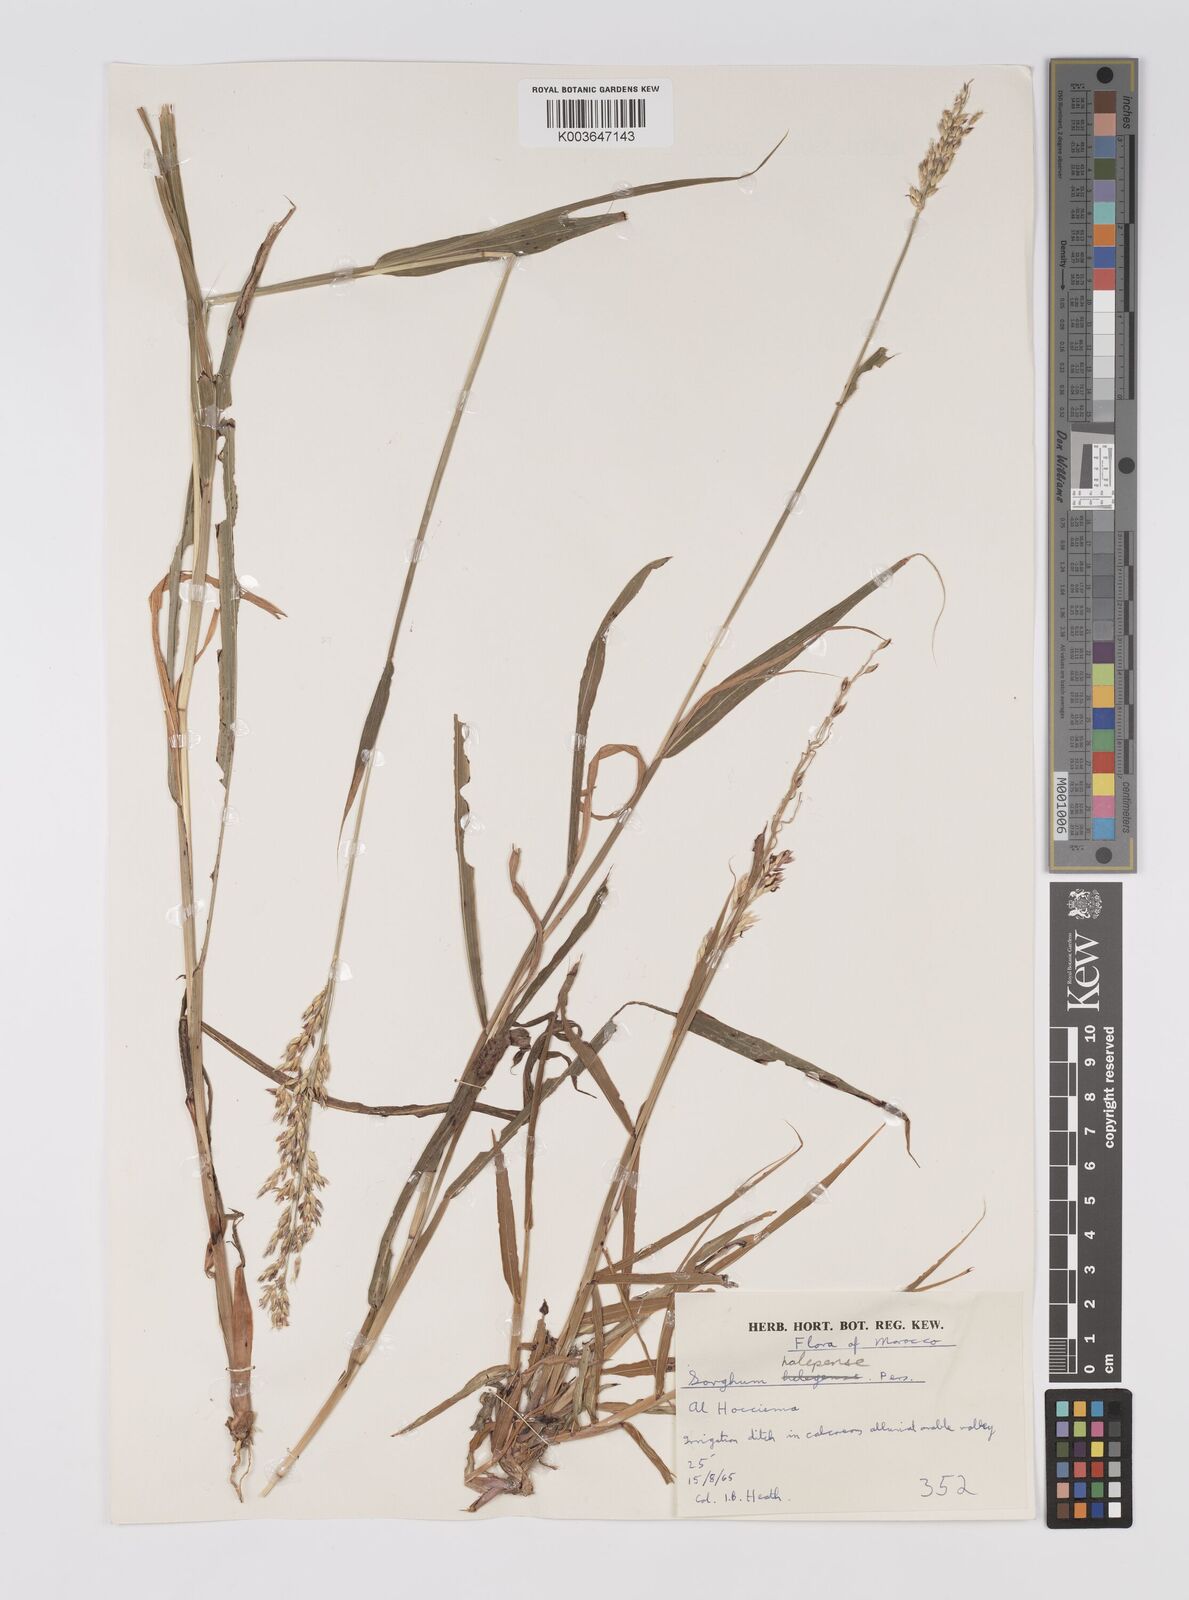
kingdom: Plantae
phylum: Tracheophyta
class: Liliopsida
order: Poales
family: Poaceae
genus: Sorghum
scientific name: Sorghum halepense
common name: Johnson-grass
